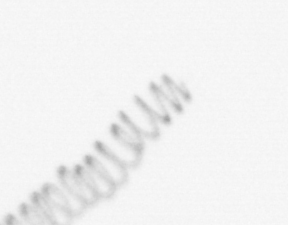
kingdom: Chromista
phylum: Ochrophyta
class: Bacillariophyceae
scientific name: Bacillariophyceae
